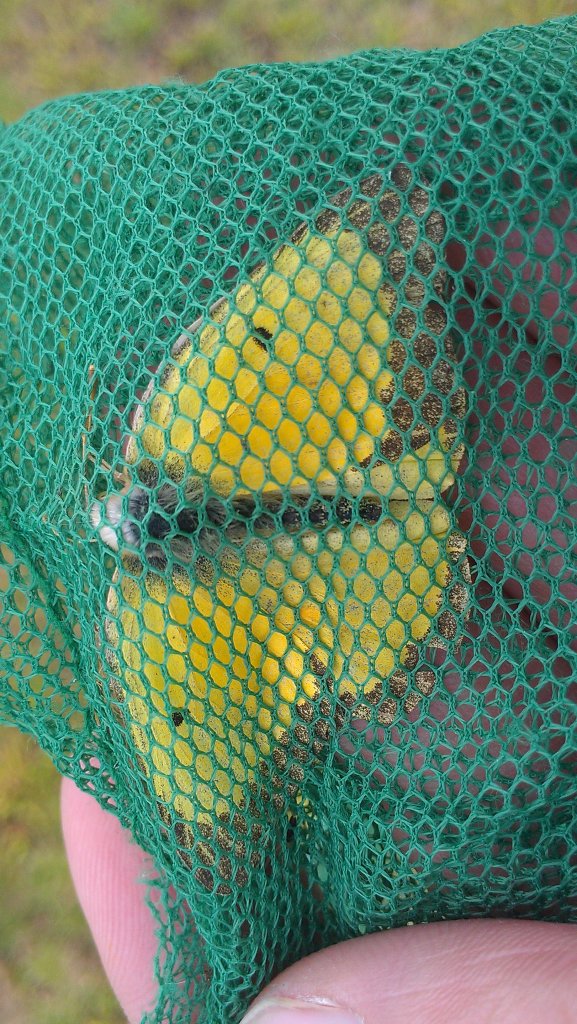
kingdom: Animalia
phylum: Arthropoda
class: Insecta
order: Lepidoptera
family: Pieridae
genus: Colias
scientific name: Colias eurytheme
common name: Orange Sulphur
